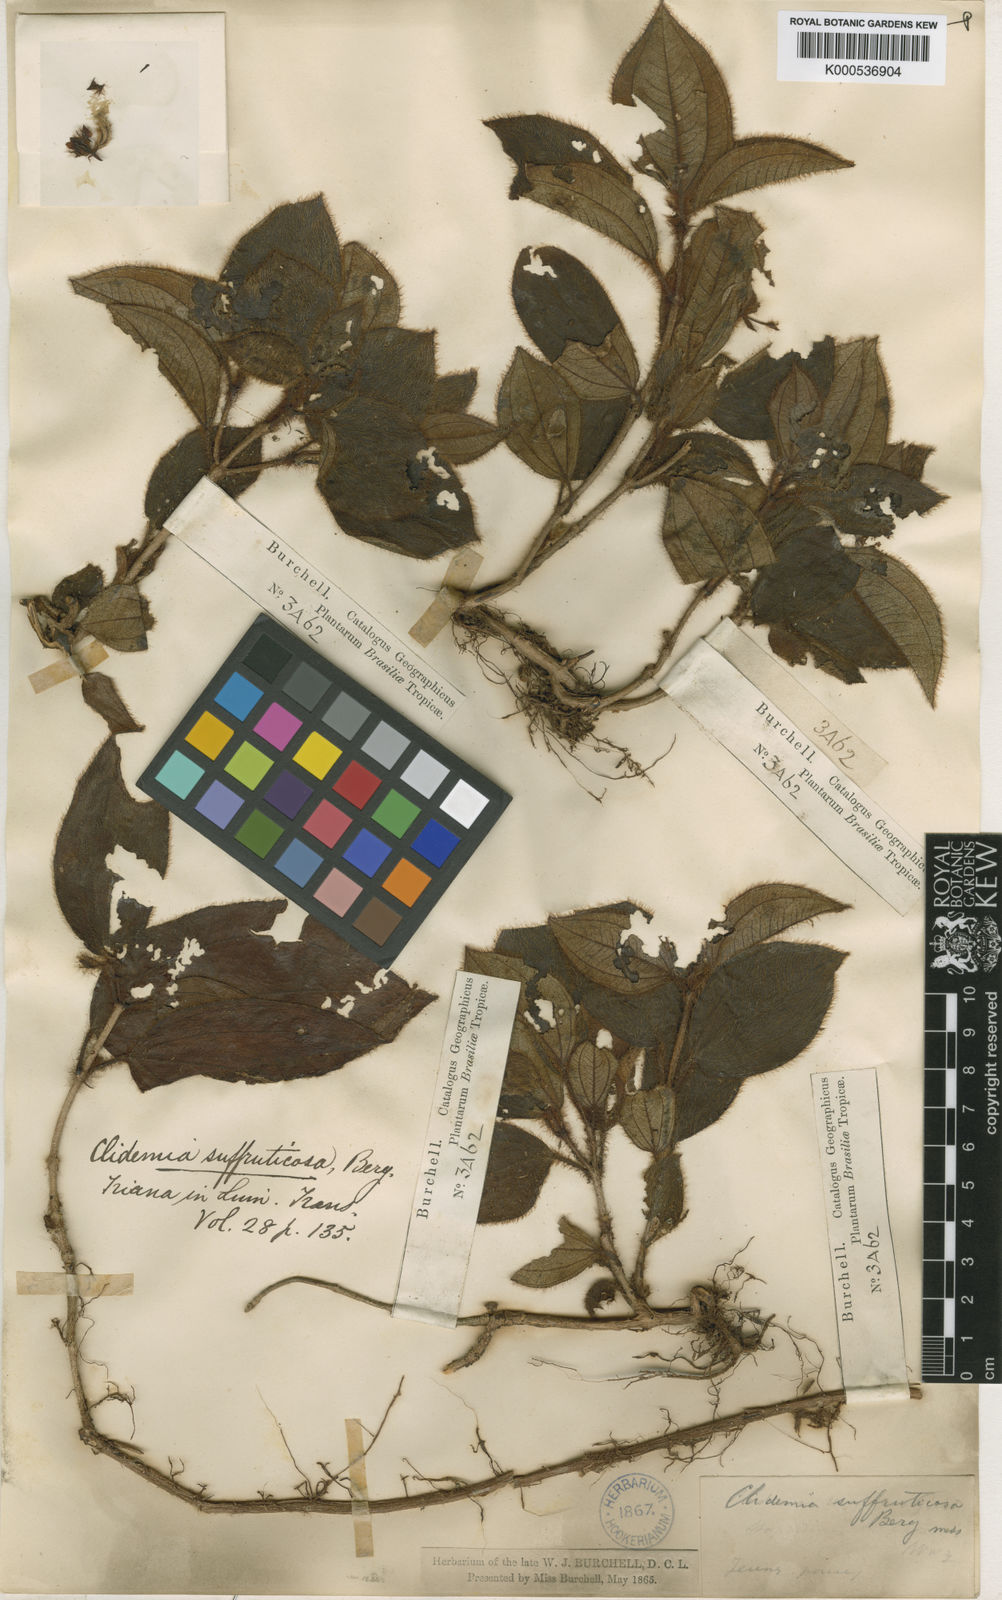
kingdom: Plantae
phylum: Tracheophyta
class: Magnoliopsida
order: Myrtales
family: Melastomataceae
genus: Miconia
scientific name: Miconia blepharodes
